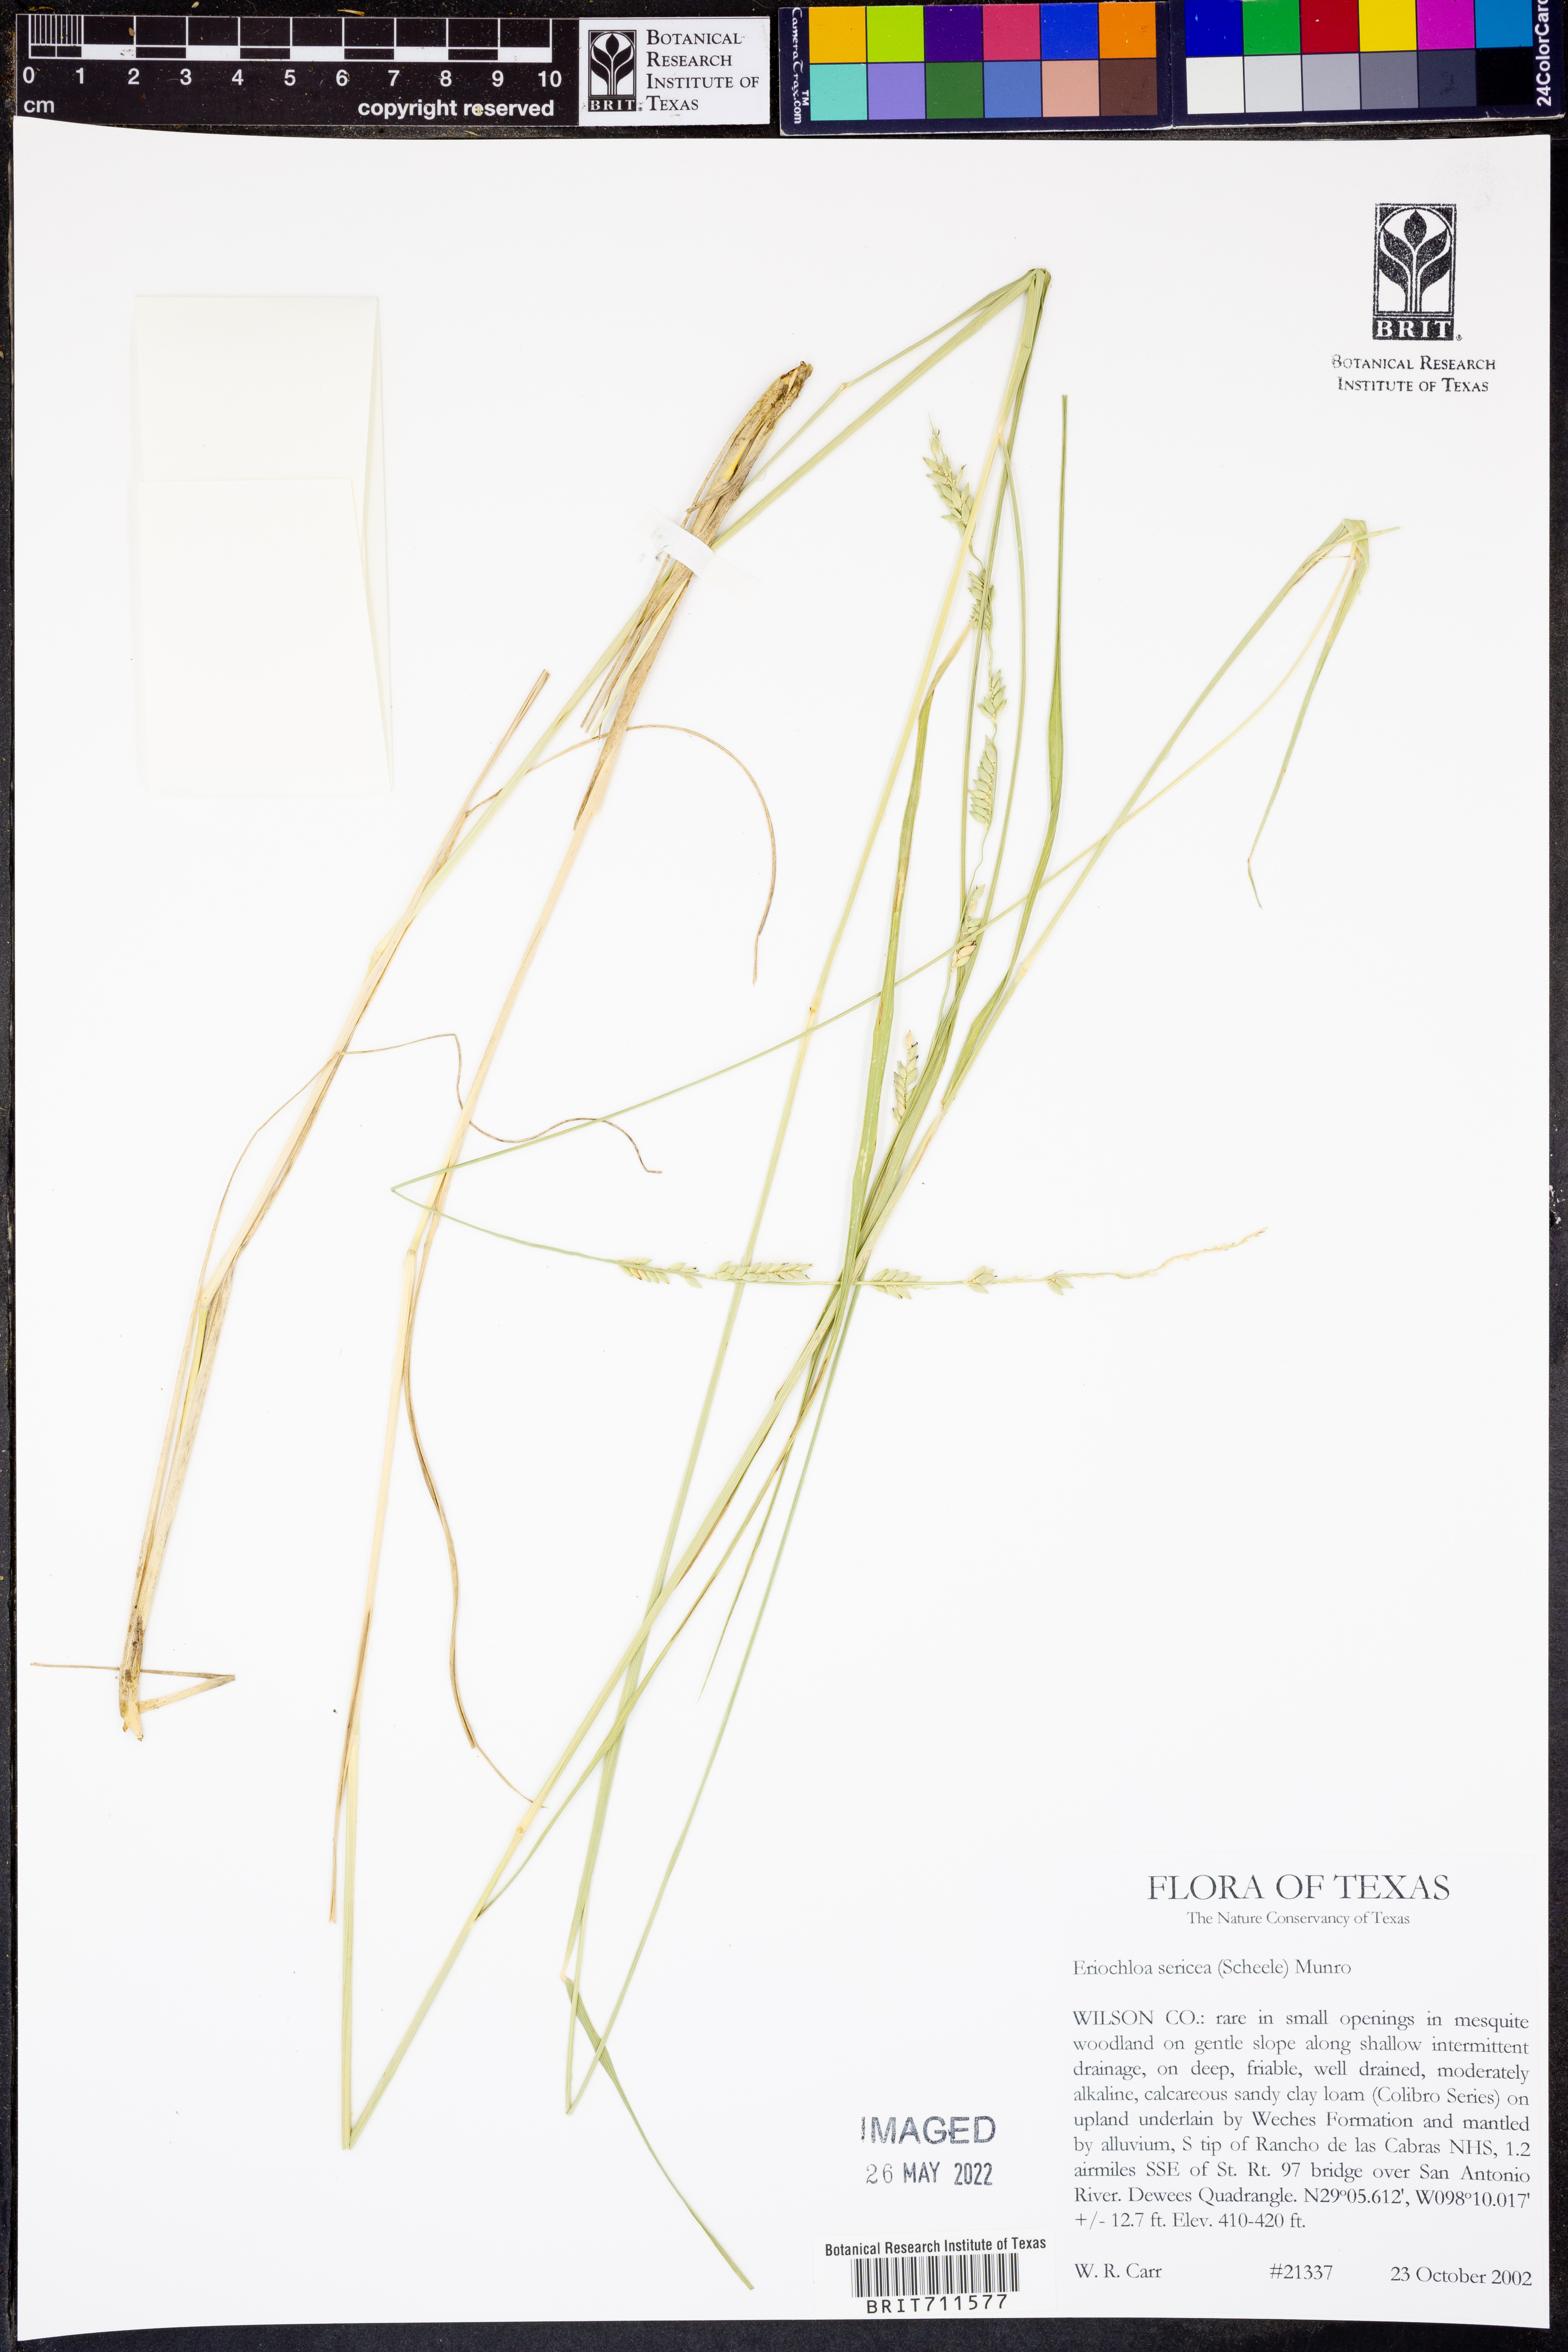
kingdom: Plantae
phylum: Tracheophyta
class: Liliopsida
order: Poales
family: Poaceae
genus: Eriochloa
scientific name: Eriochloa sericea
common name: Texas cup grass
